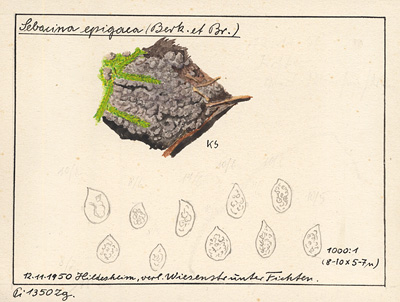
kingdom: Plantae
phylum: Tracheophyta
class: Pinopsida
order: Pinales
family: Pinaceae
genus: Picea
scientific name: Picea abies
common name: Norway spruce
